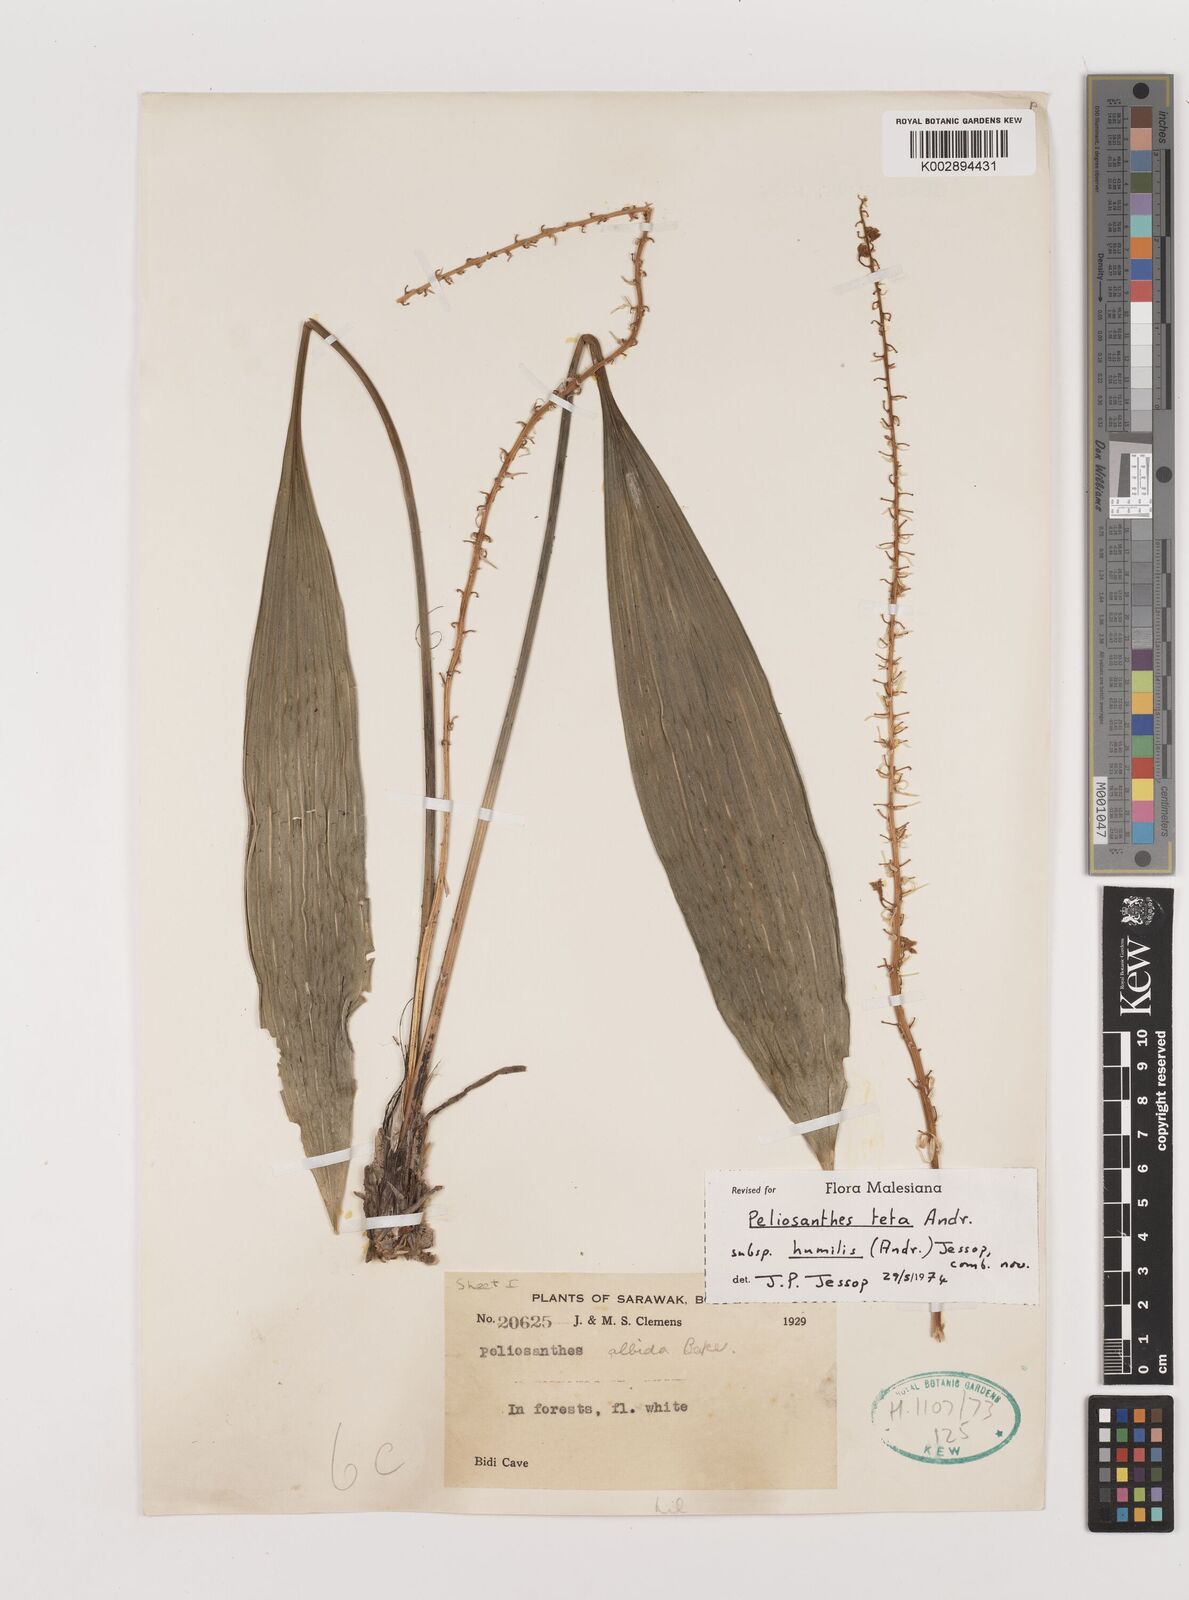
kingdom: Plantae
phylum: Tracheophyta
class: Liliopsida
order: Asparagales
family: Asparagaceae
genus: Peliosanthes
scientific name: Peliosanthes teta
